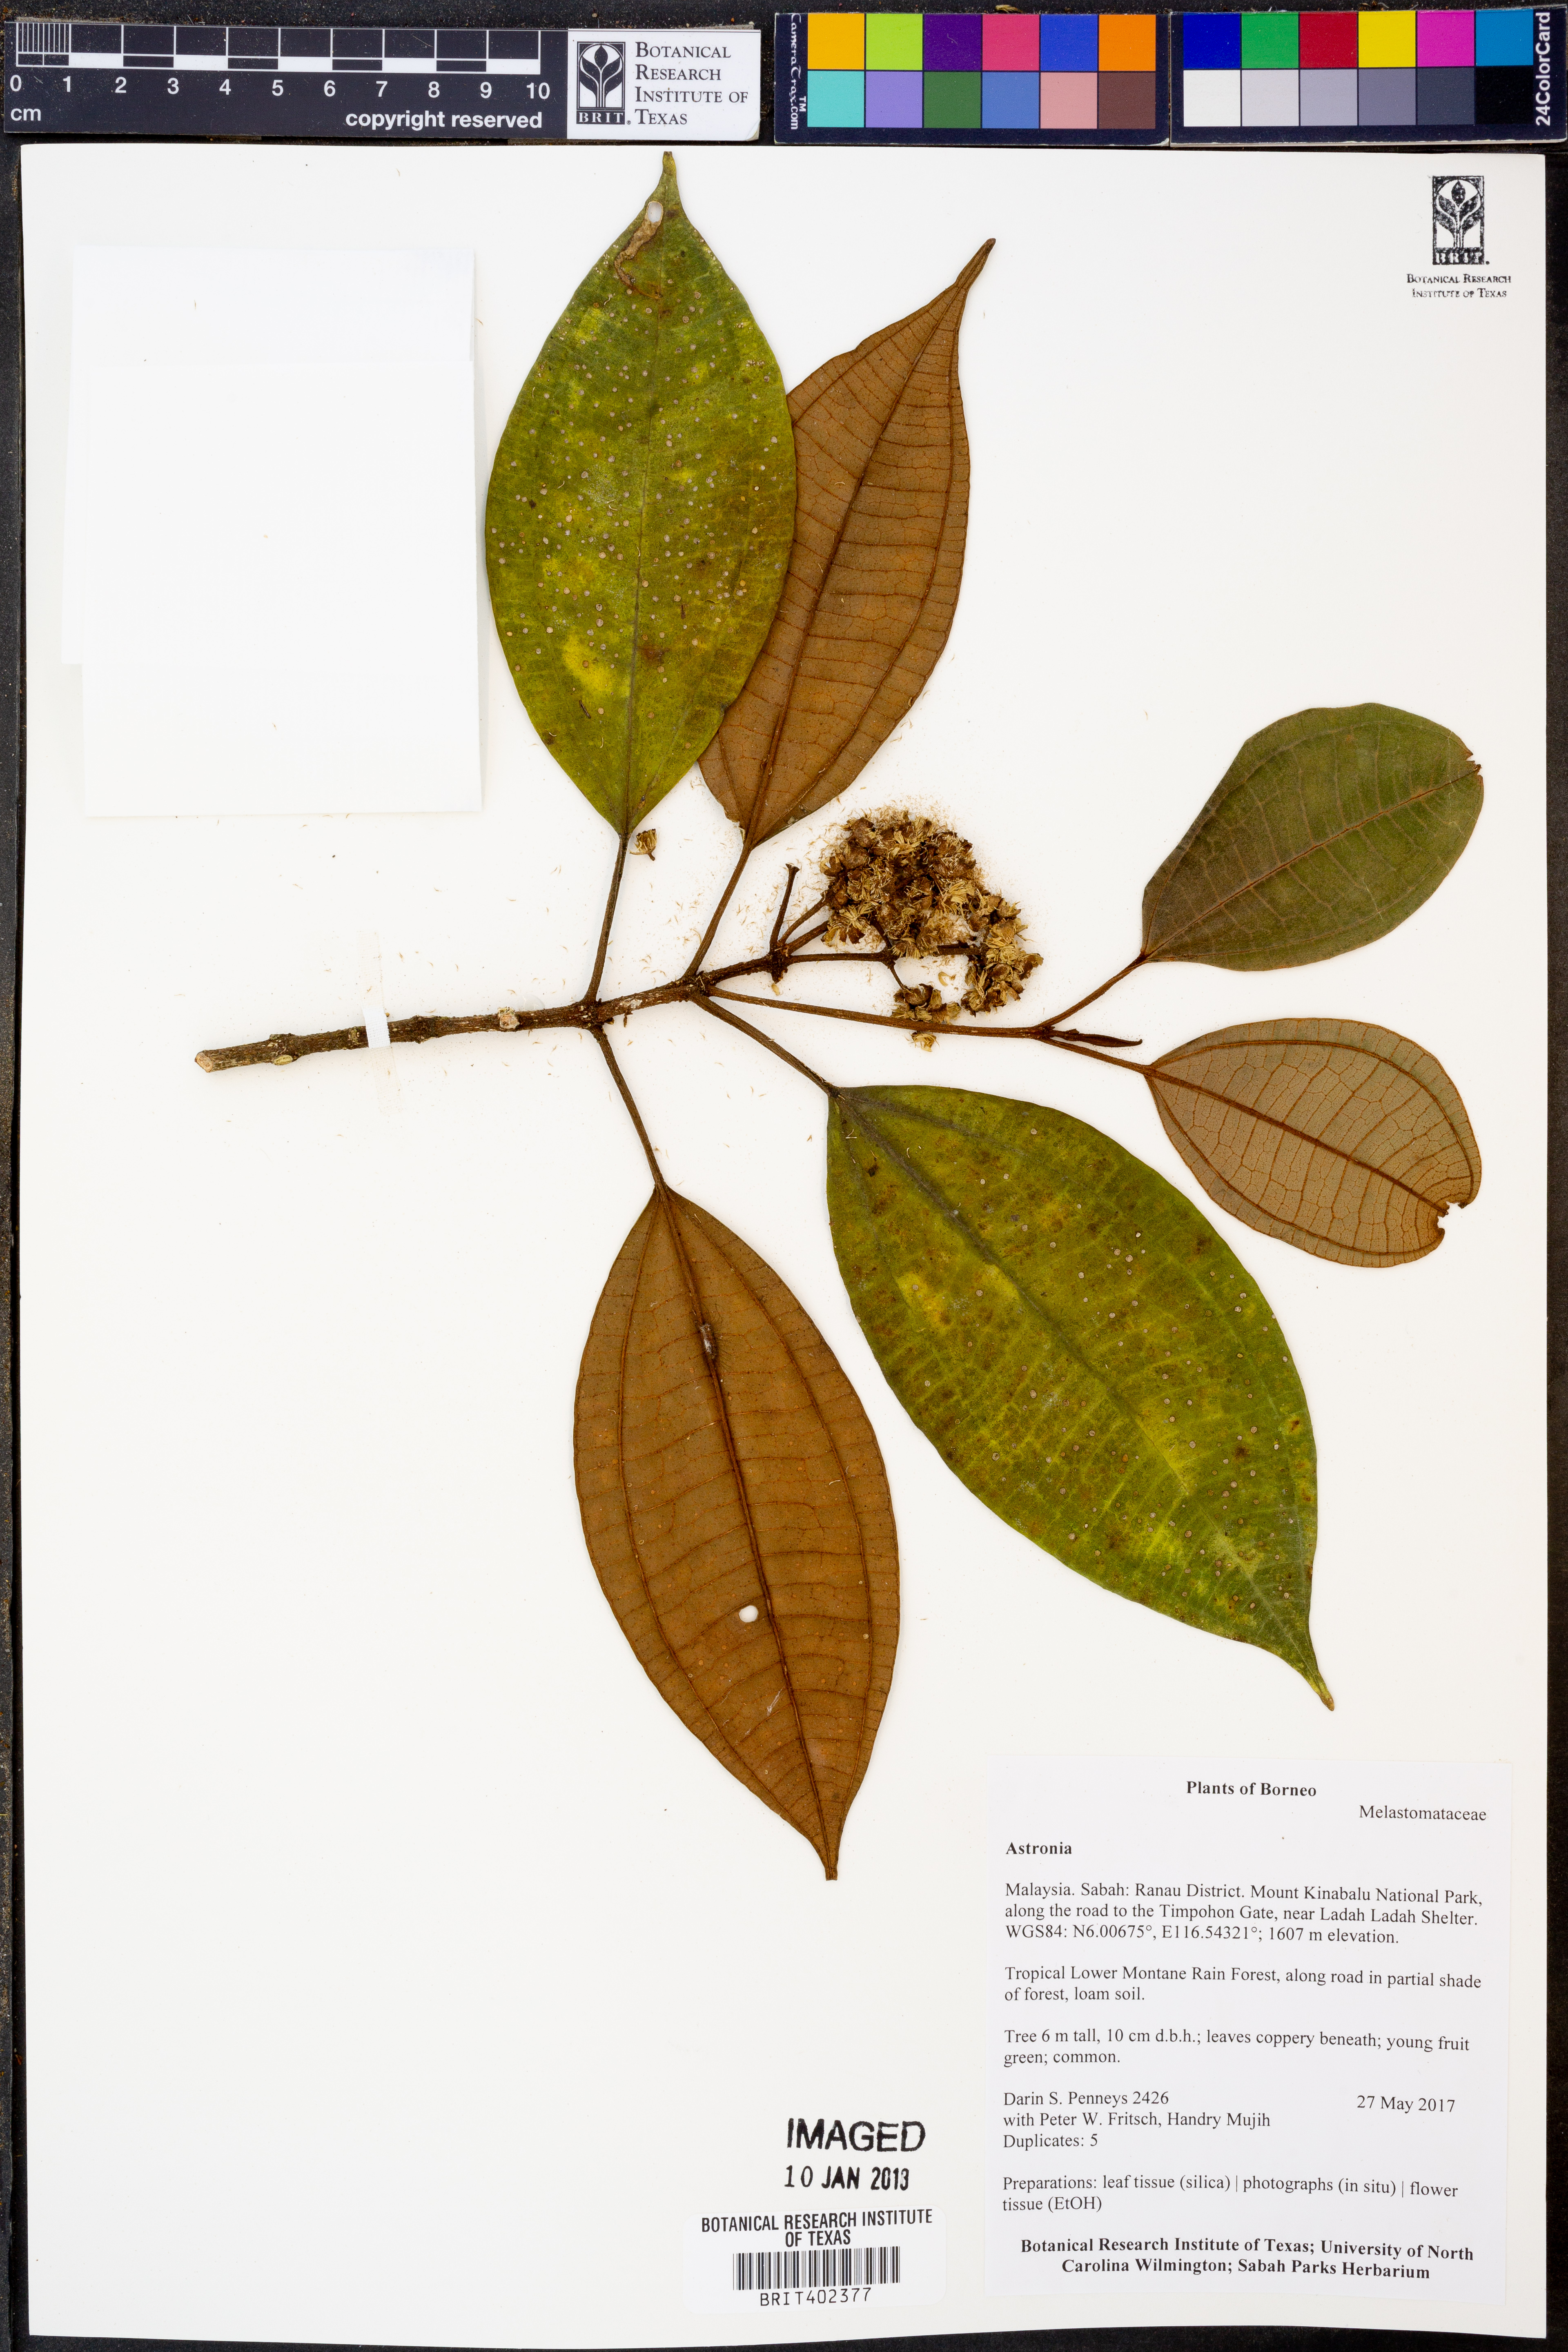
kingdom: Plantae
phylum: Tracheophyta
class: Magnoliopsida
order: Myrtales
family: Melastomataceae
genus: Astronia
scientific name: Astronia
